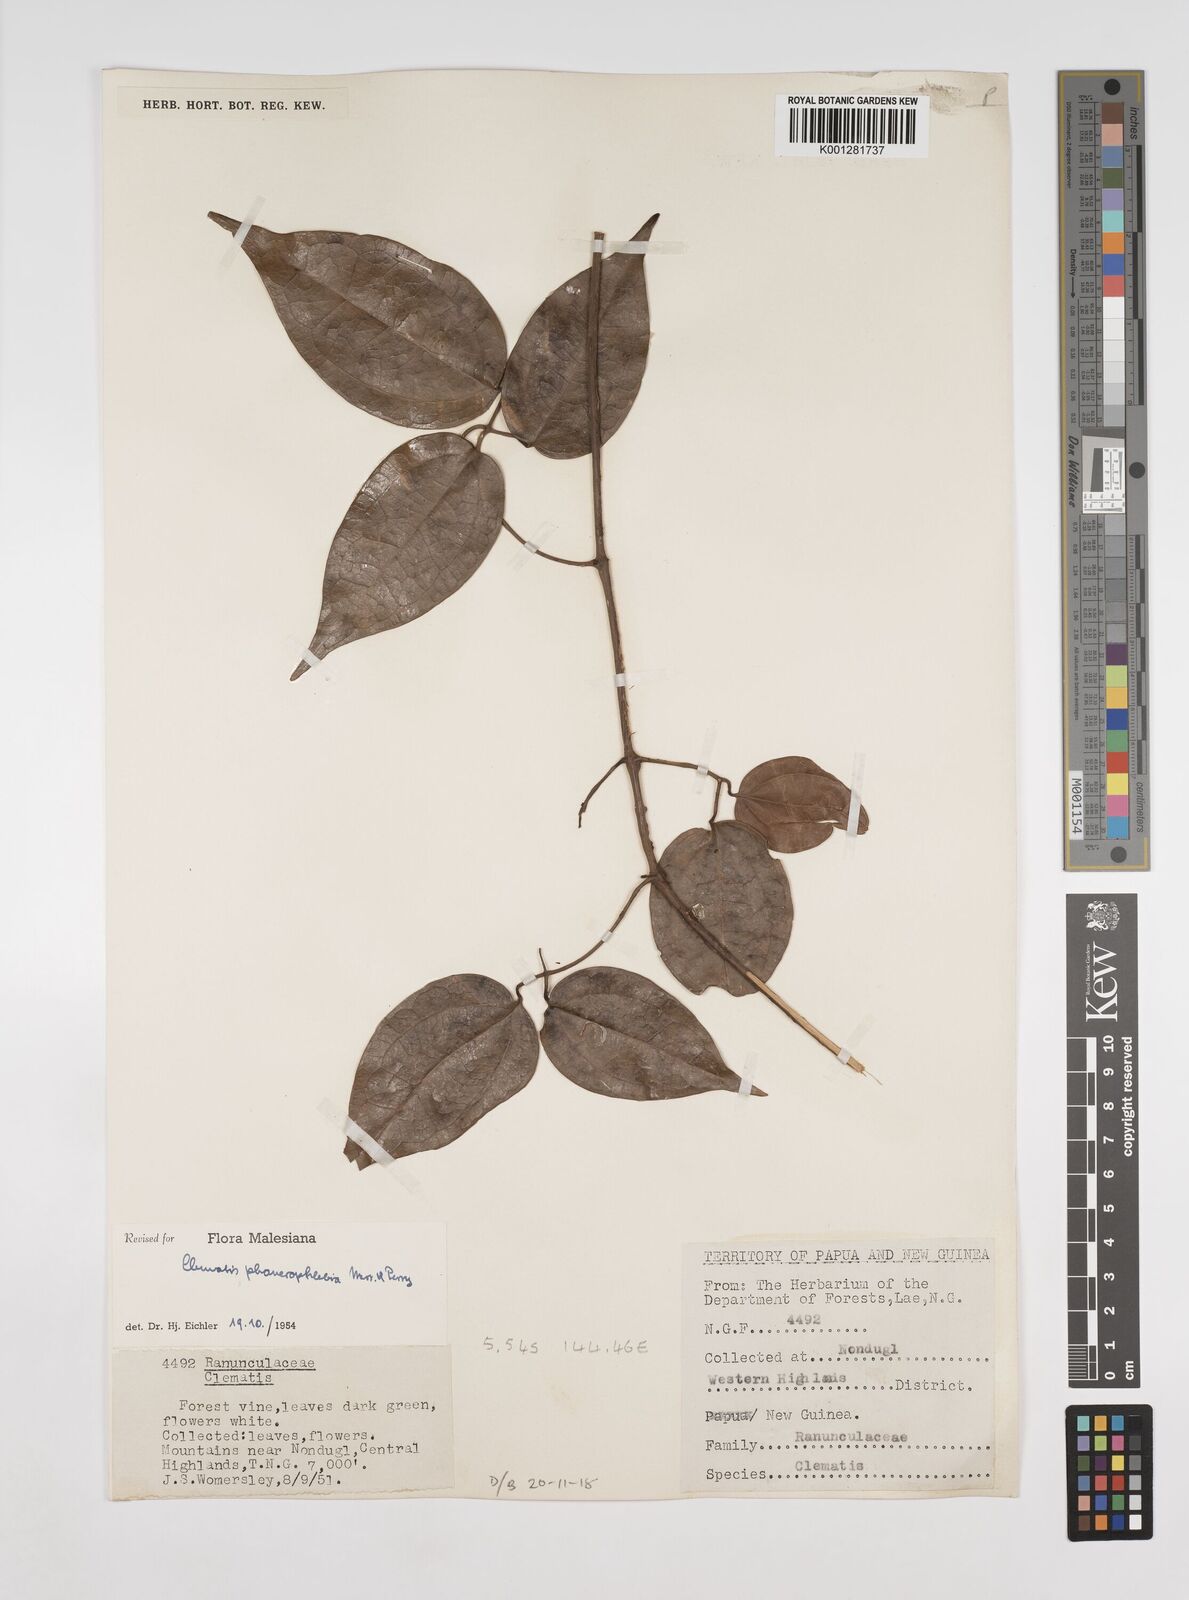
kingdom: Plantae
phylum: Tracheophyta
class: Magnoliopsida
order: Ranunculales
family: Ranunculaceae
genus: Clematis
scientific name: Clematis phanerophlebia
